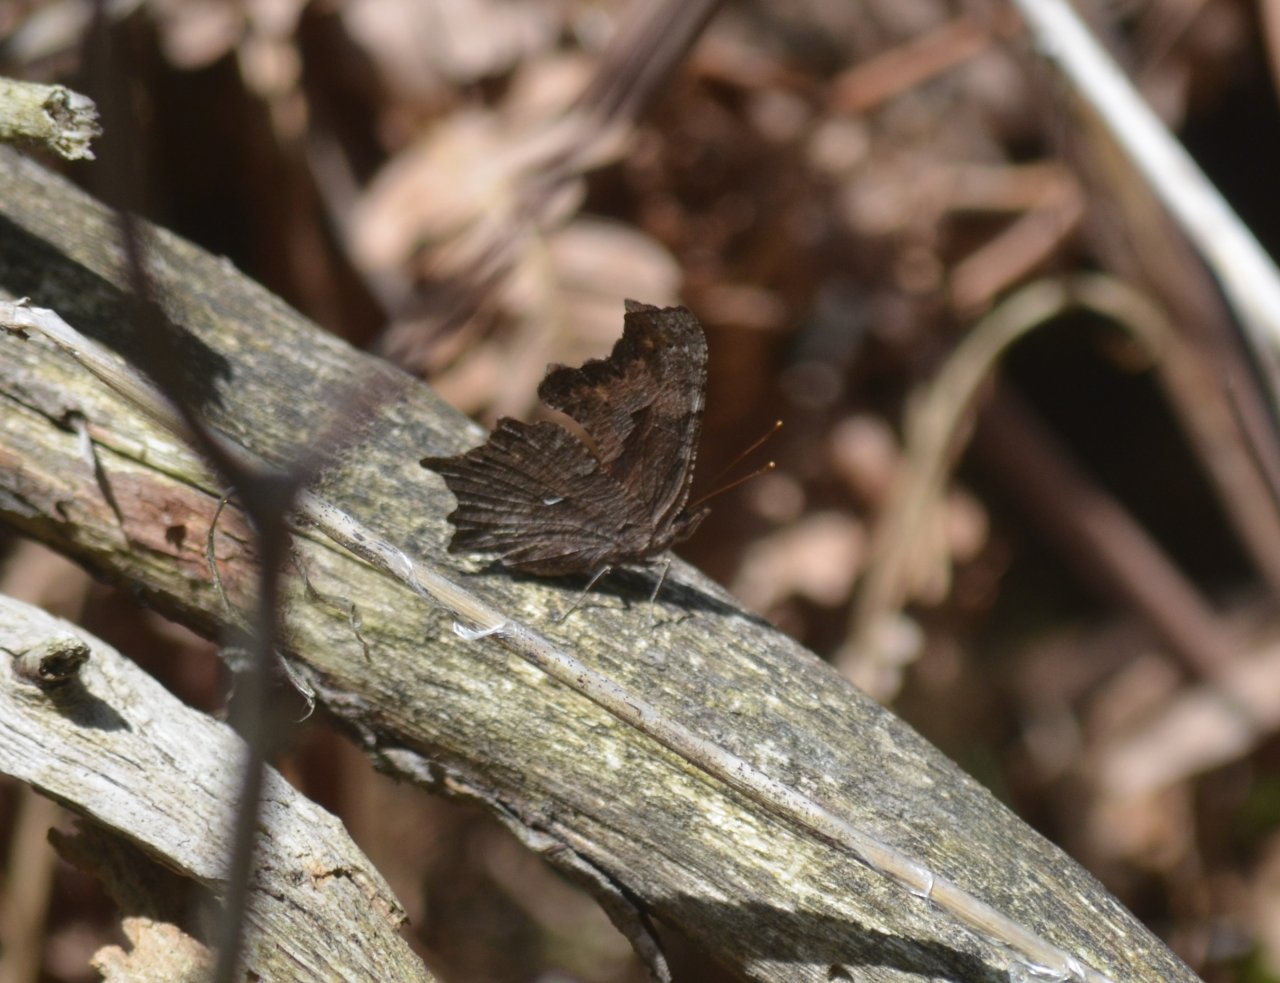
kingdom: Animalia
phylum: Arthropoda
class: Insecta
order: Lepidoptera
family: Nymphalidae
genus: Polygonia
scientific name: Polygonia progne
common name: Gray Comma
